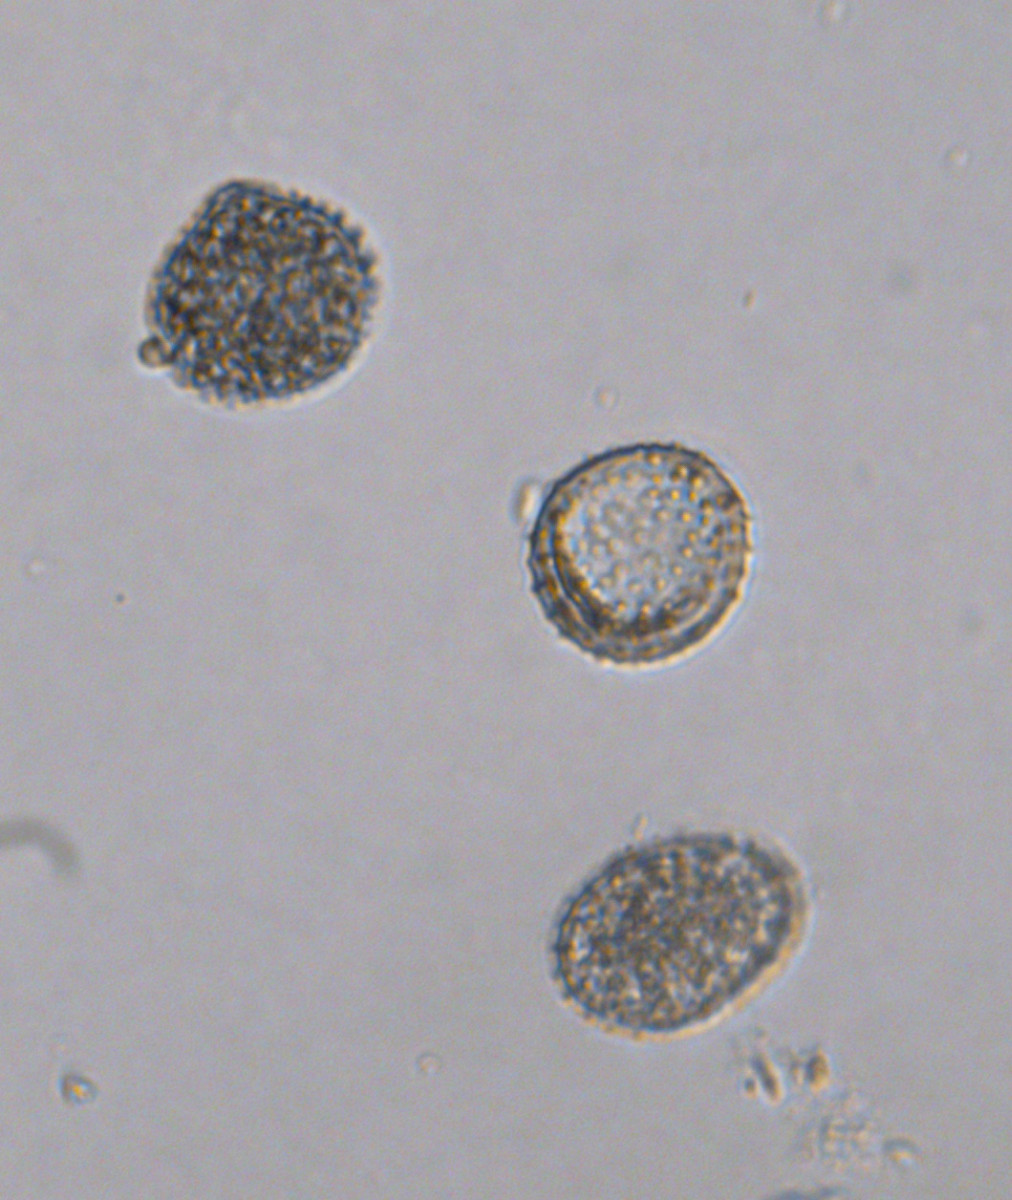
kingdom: Fungi
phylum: Basidiomycota
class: Pucciniomycetes
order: Pucciniales
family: Pucciniaceae
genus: Puccinia
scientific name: Puccinia menthae
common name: Mint rust
